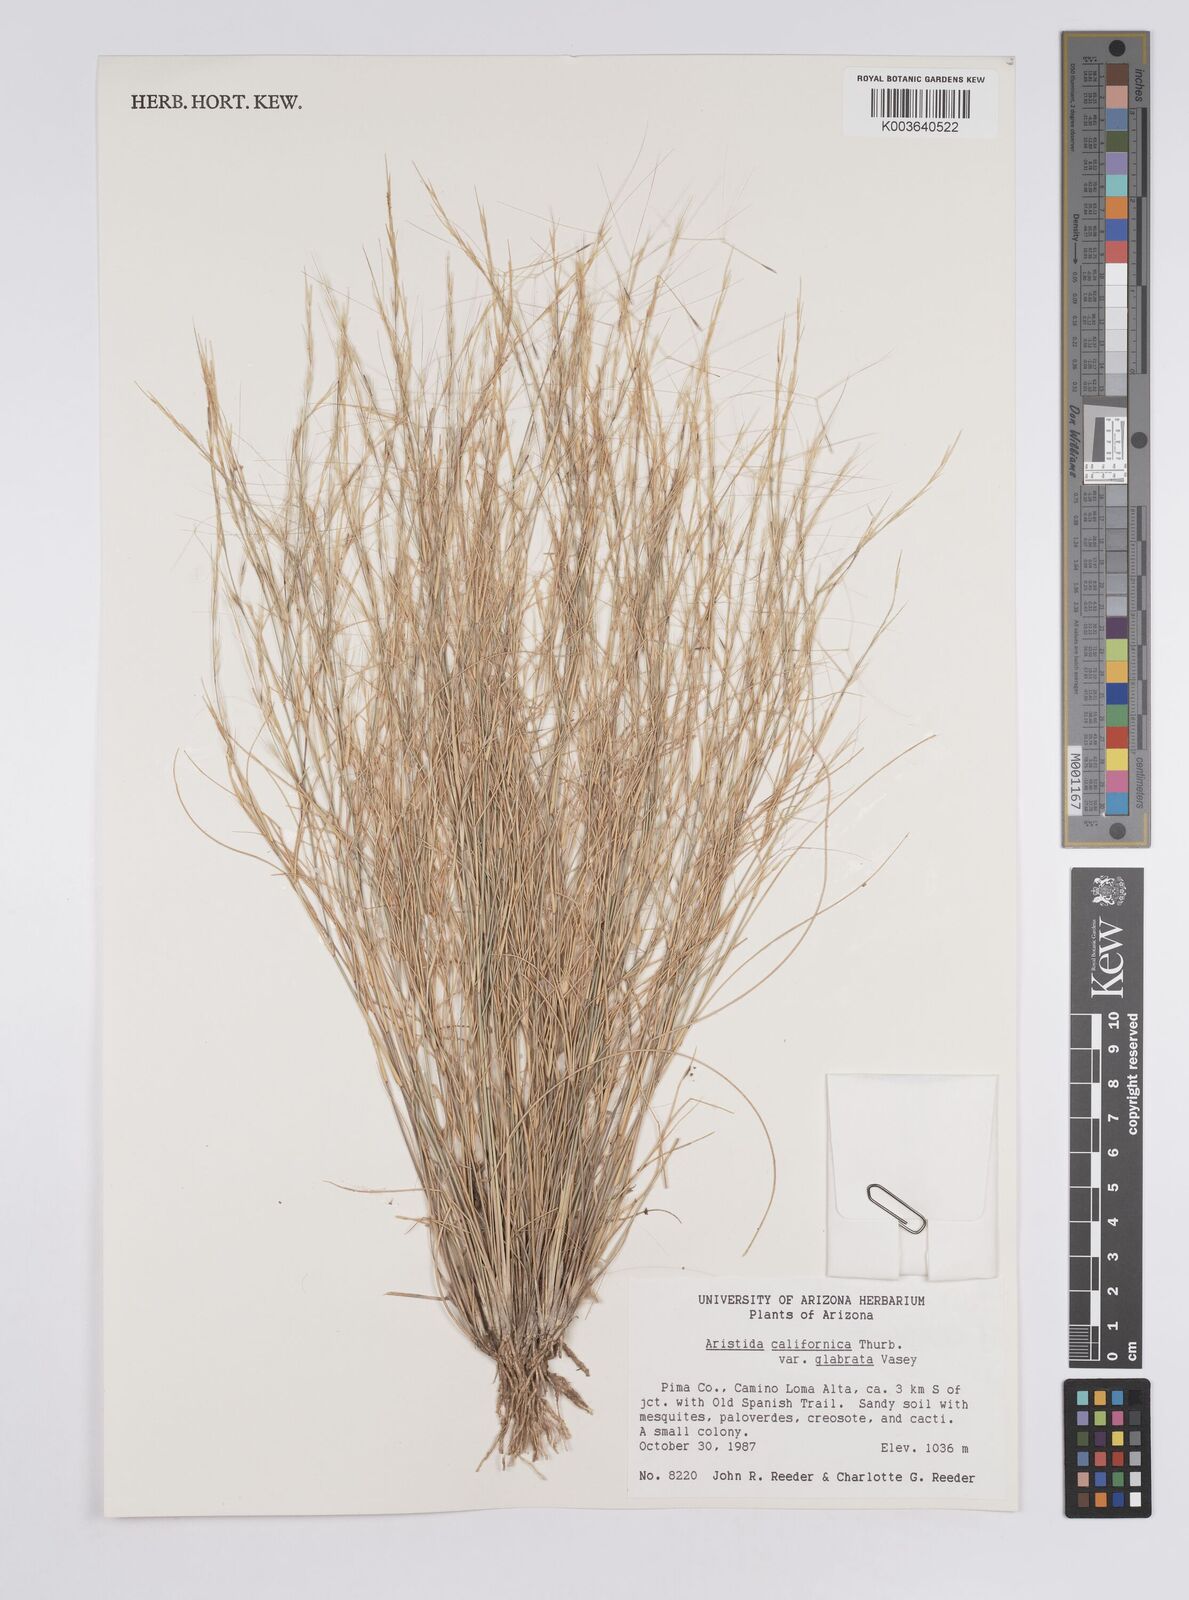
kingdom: Plantae
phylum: Tracheophyta
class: Liliopsida
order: Poales
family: Poaceae
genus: Aristida
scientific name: Aristida californica
